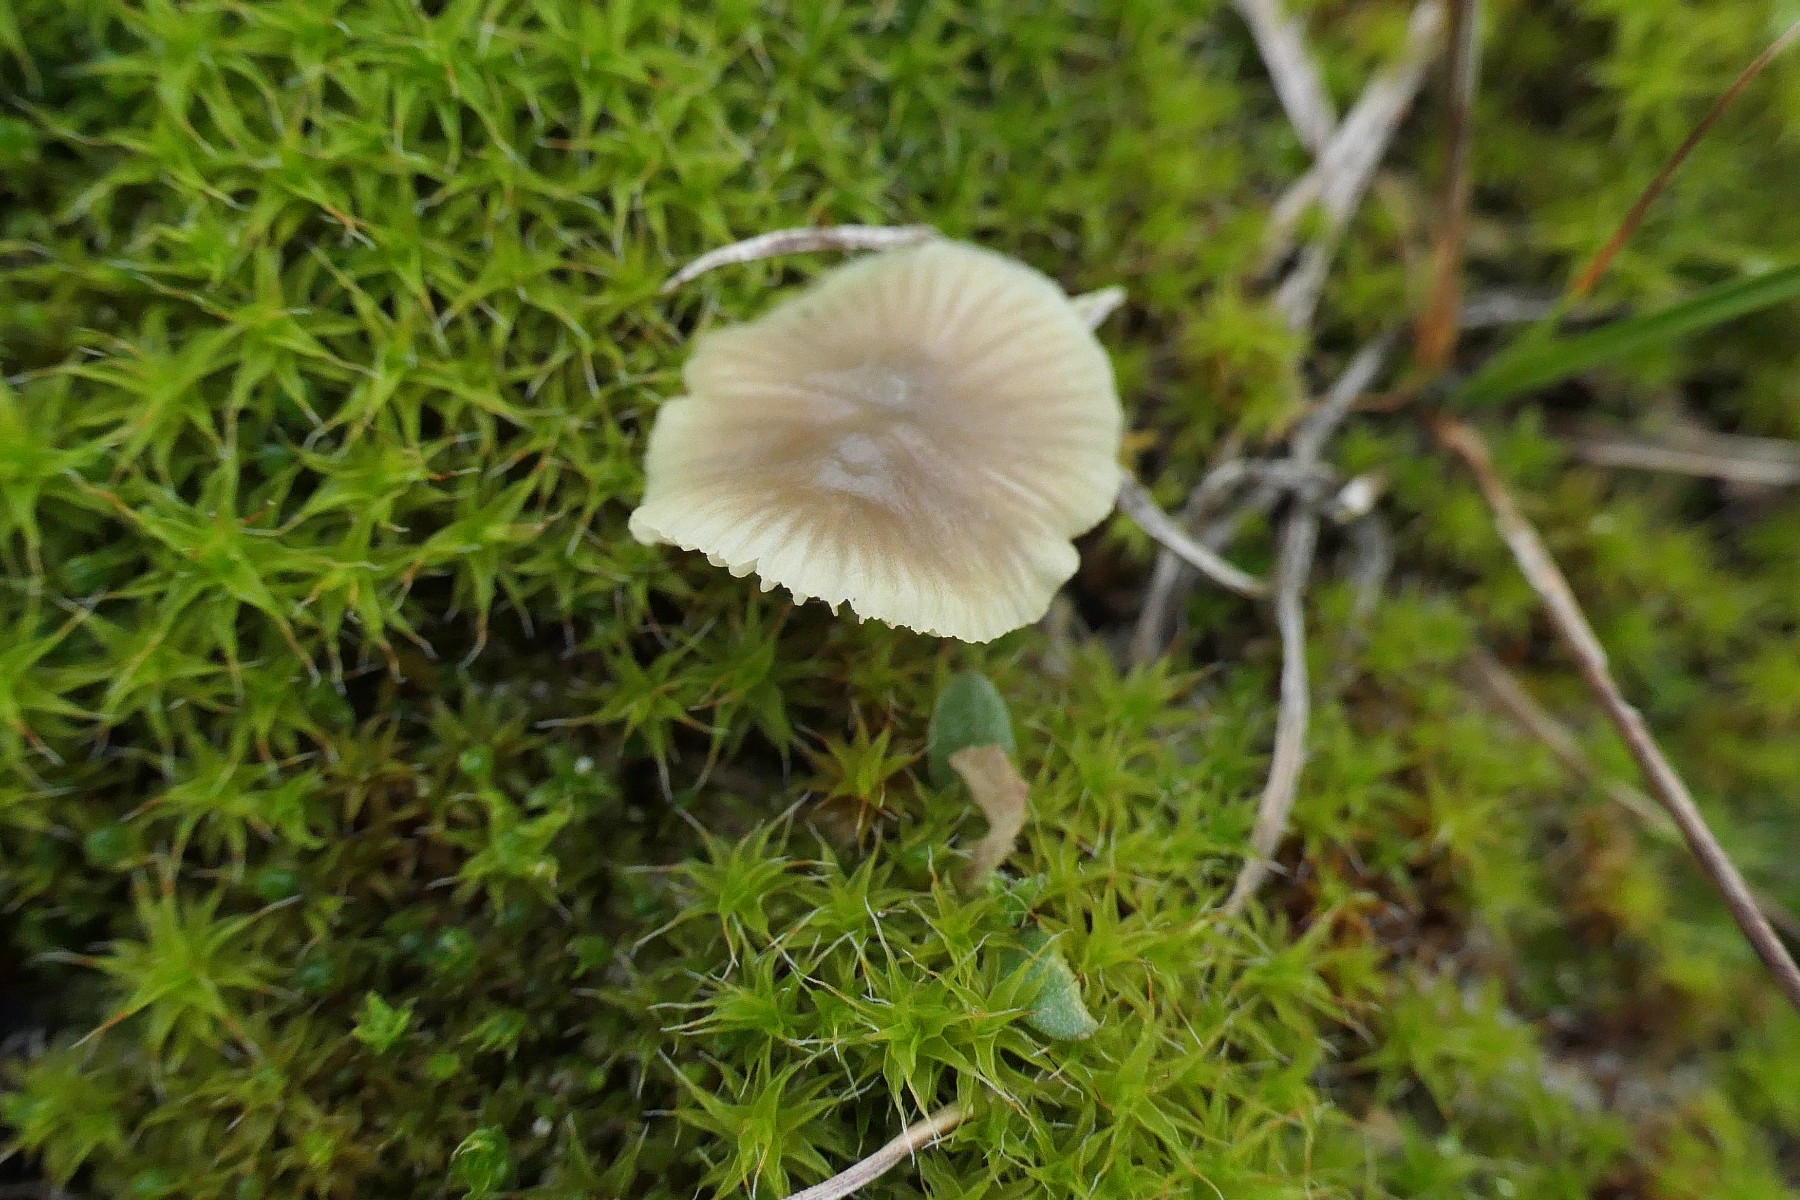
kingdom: Fungi
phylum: Basidiomycota
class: Agaricomycetes
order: Agaricales
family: Mycenaceae
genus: Mycena
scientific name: Mycena chlorantha
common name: klit-huesvamp
